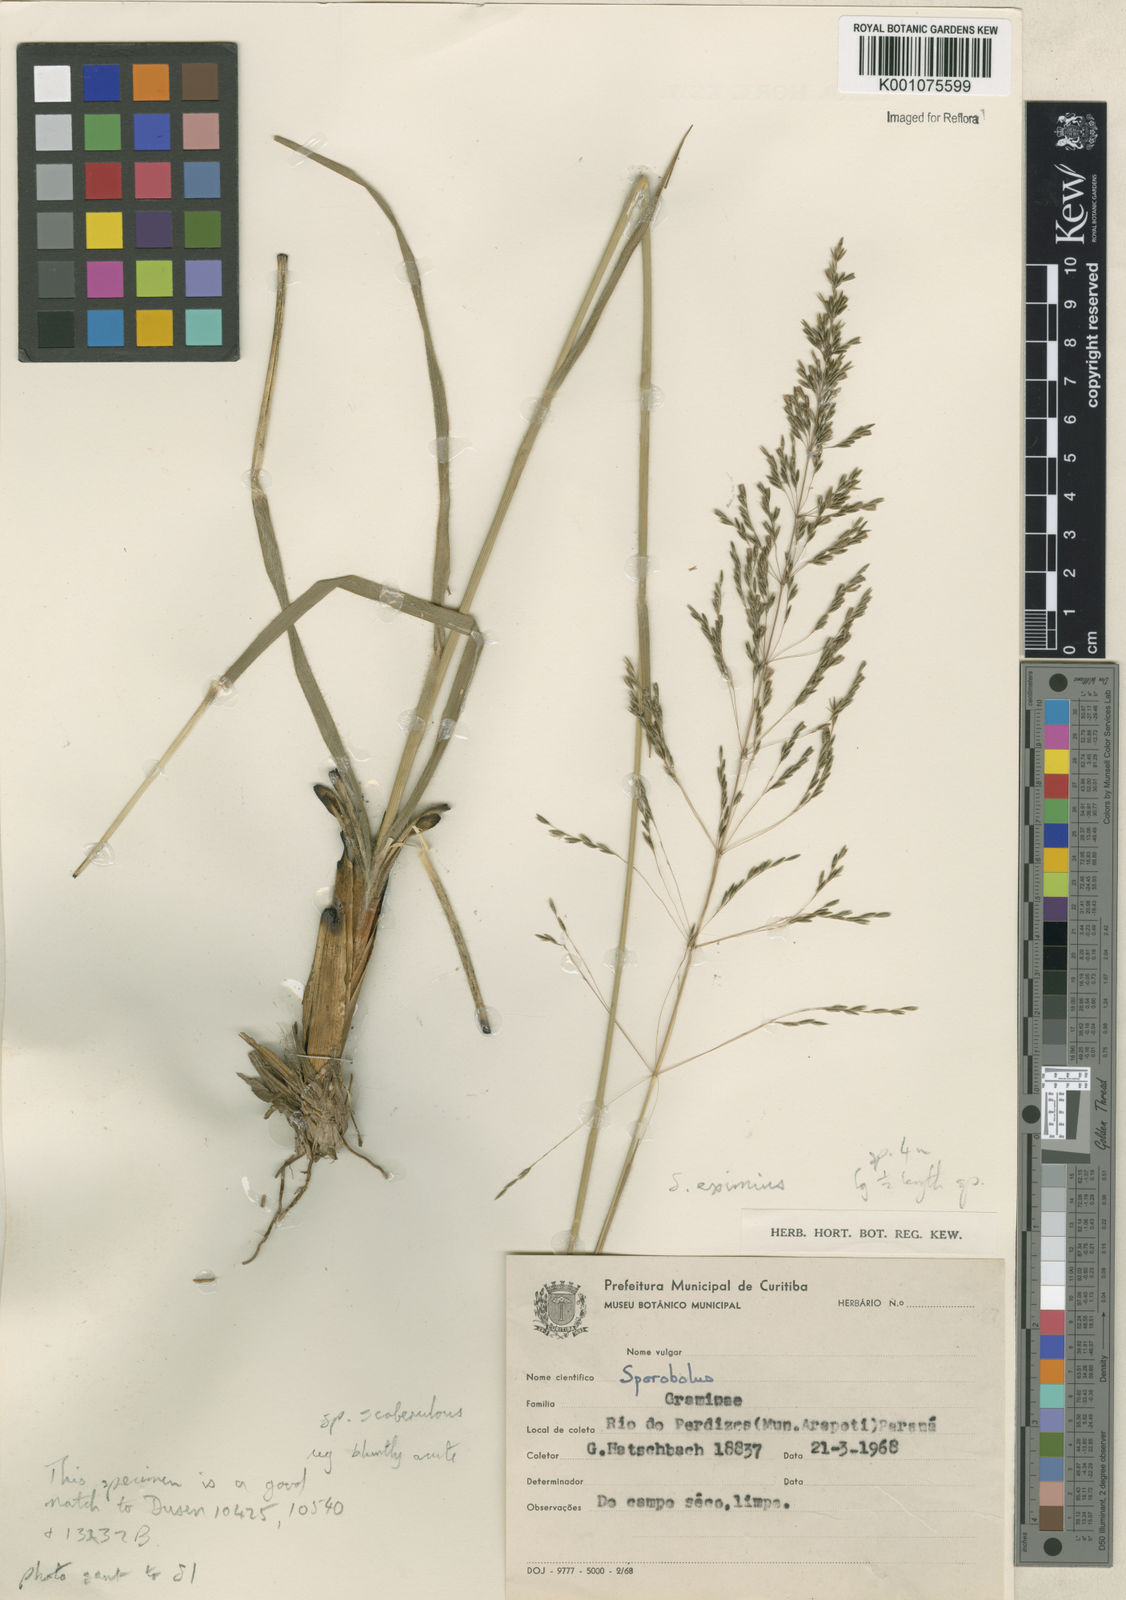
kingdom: Plantae
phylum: Tracheophyta
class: Liliopsida
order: Poales
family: Poaceae
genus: Sporobolus
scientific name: Sporobolus eximius
